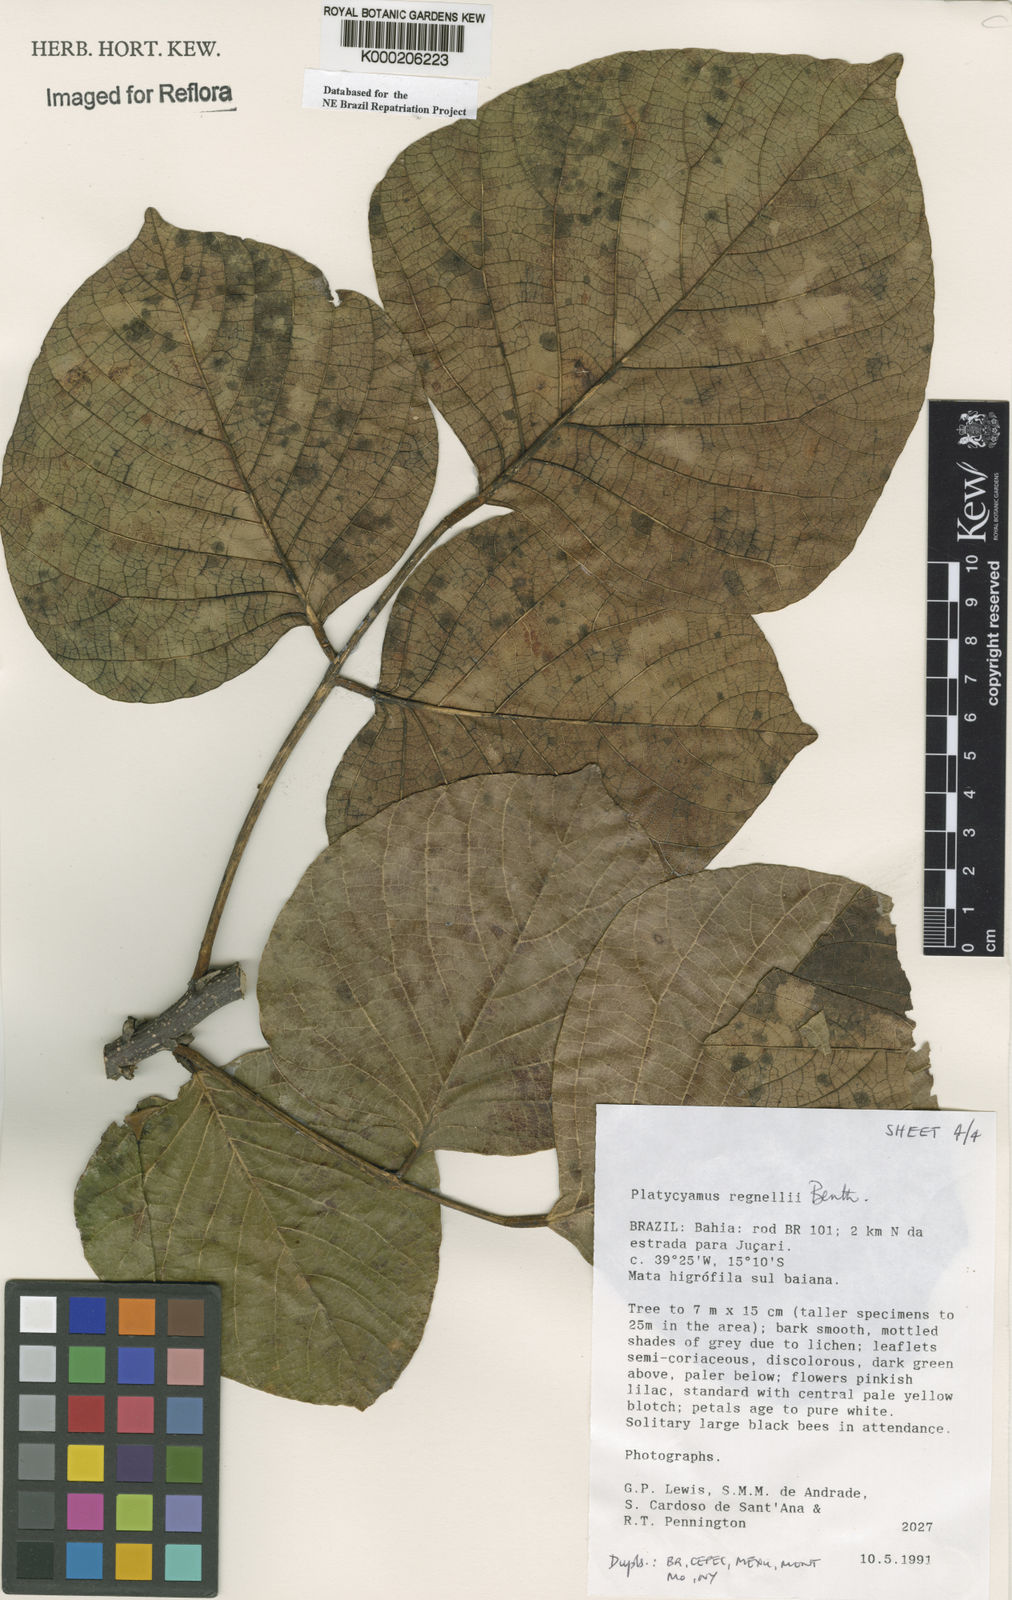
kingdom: Plantae
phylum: Tracheophyta
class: Magnoliopsida
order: Fabales
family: Fabaceae
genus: Platycyamus
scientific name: Platycyamus regnellii
